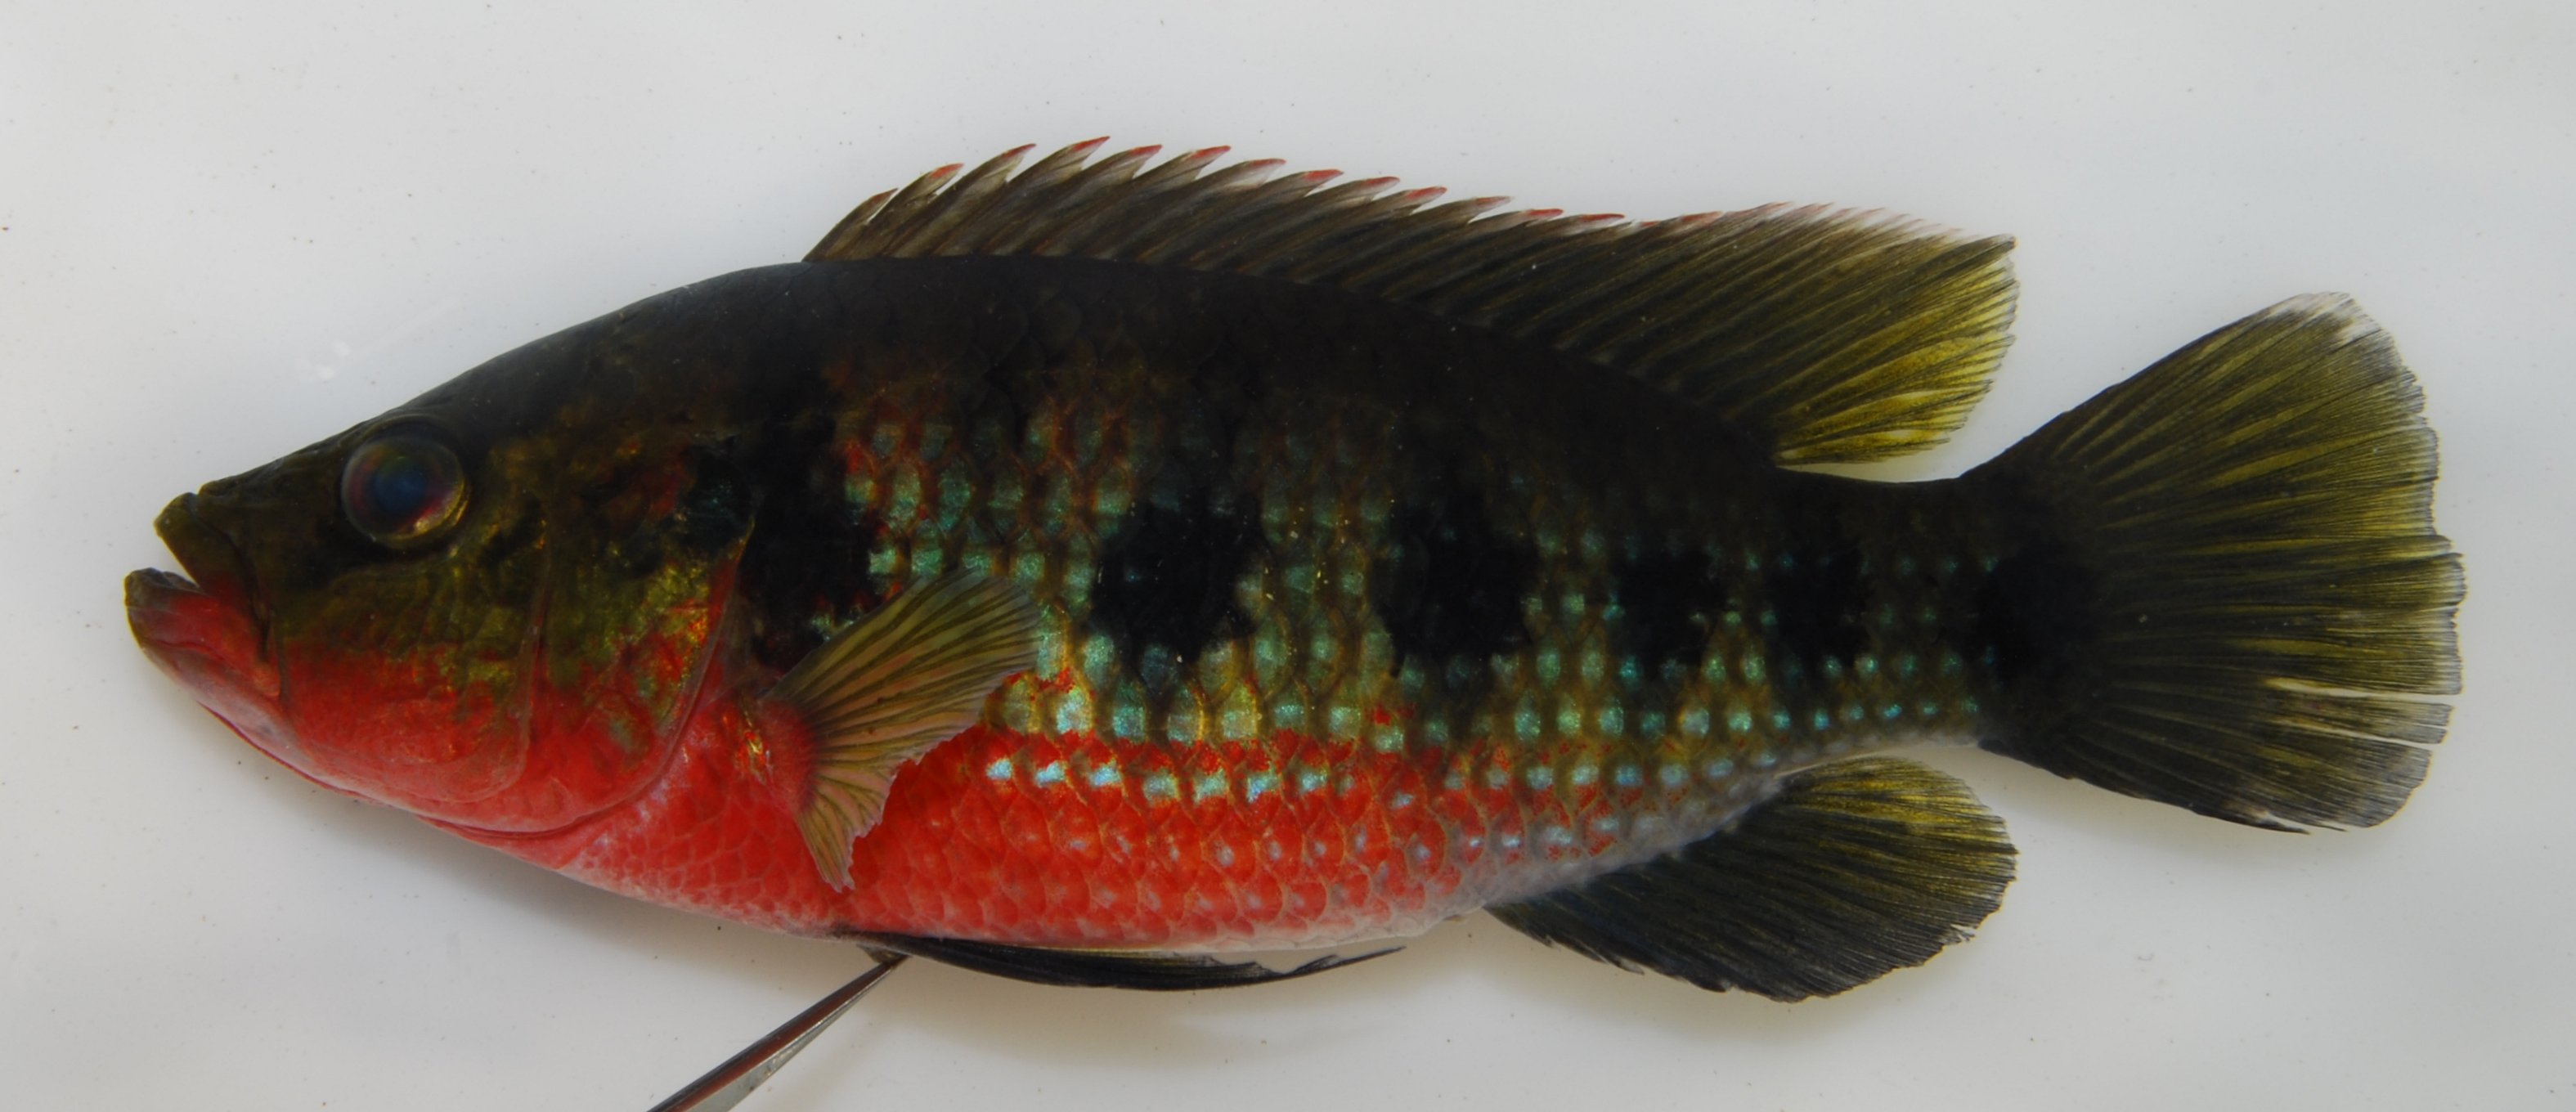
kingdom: Animalia
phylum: Chordata
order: Perciformes
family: Cichlidae
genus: Hemichromis
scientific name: Hemichromis elongatus
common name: Jewel cichlid
